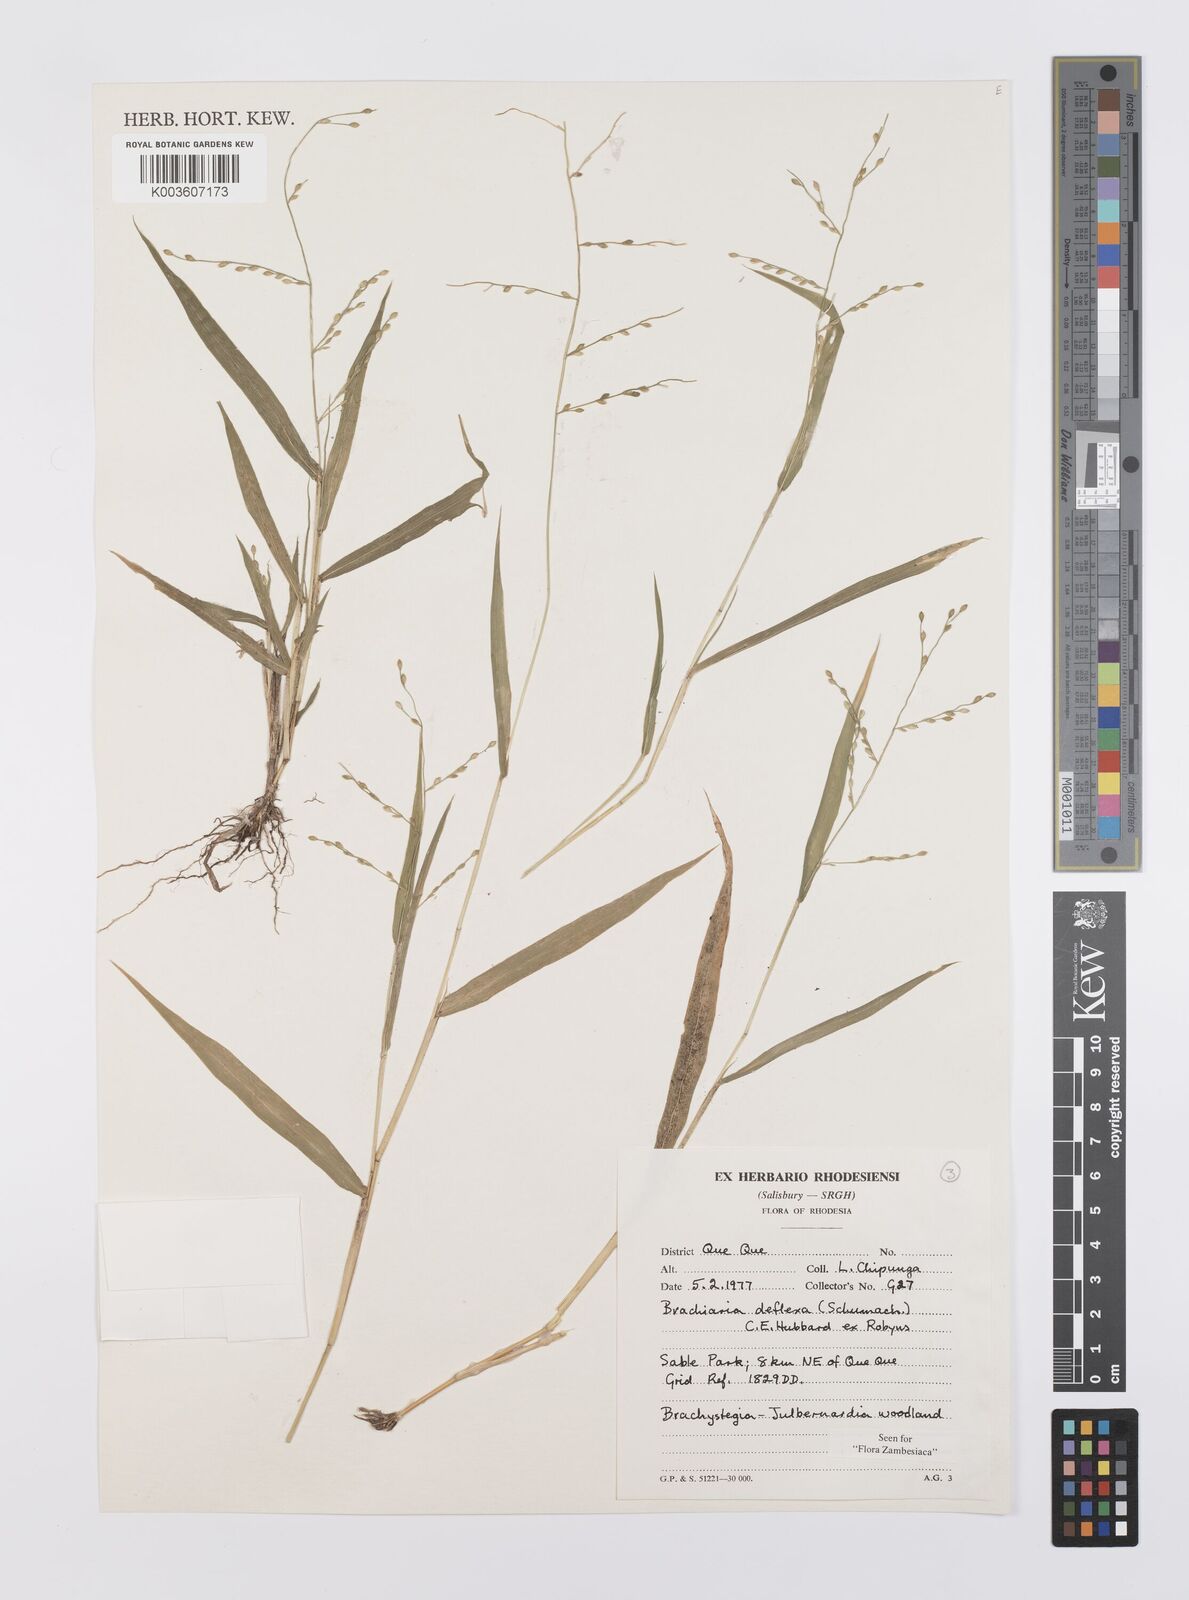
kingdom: Plantae
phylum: Tracheophyta
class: Liliopsida
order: Poales
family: Poaceae
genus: Urochloa
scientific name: Urochloa deflexa
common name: Guinea millet
